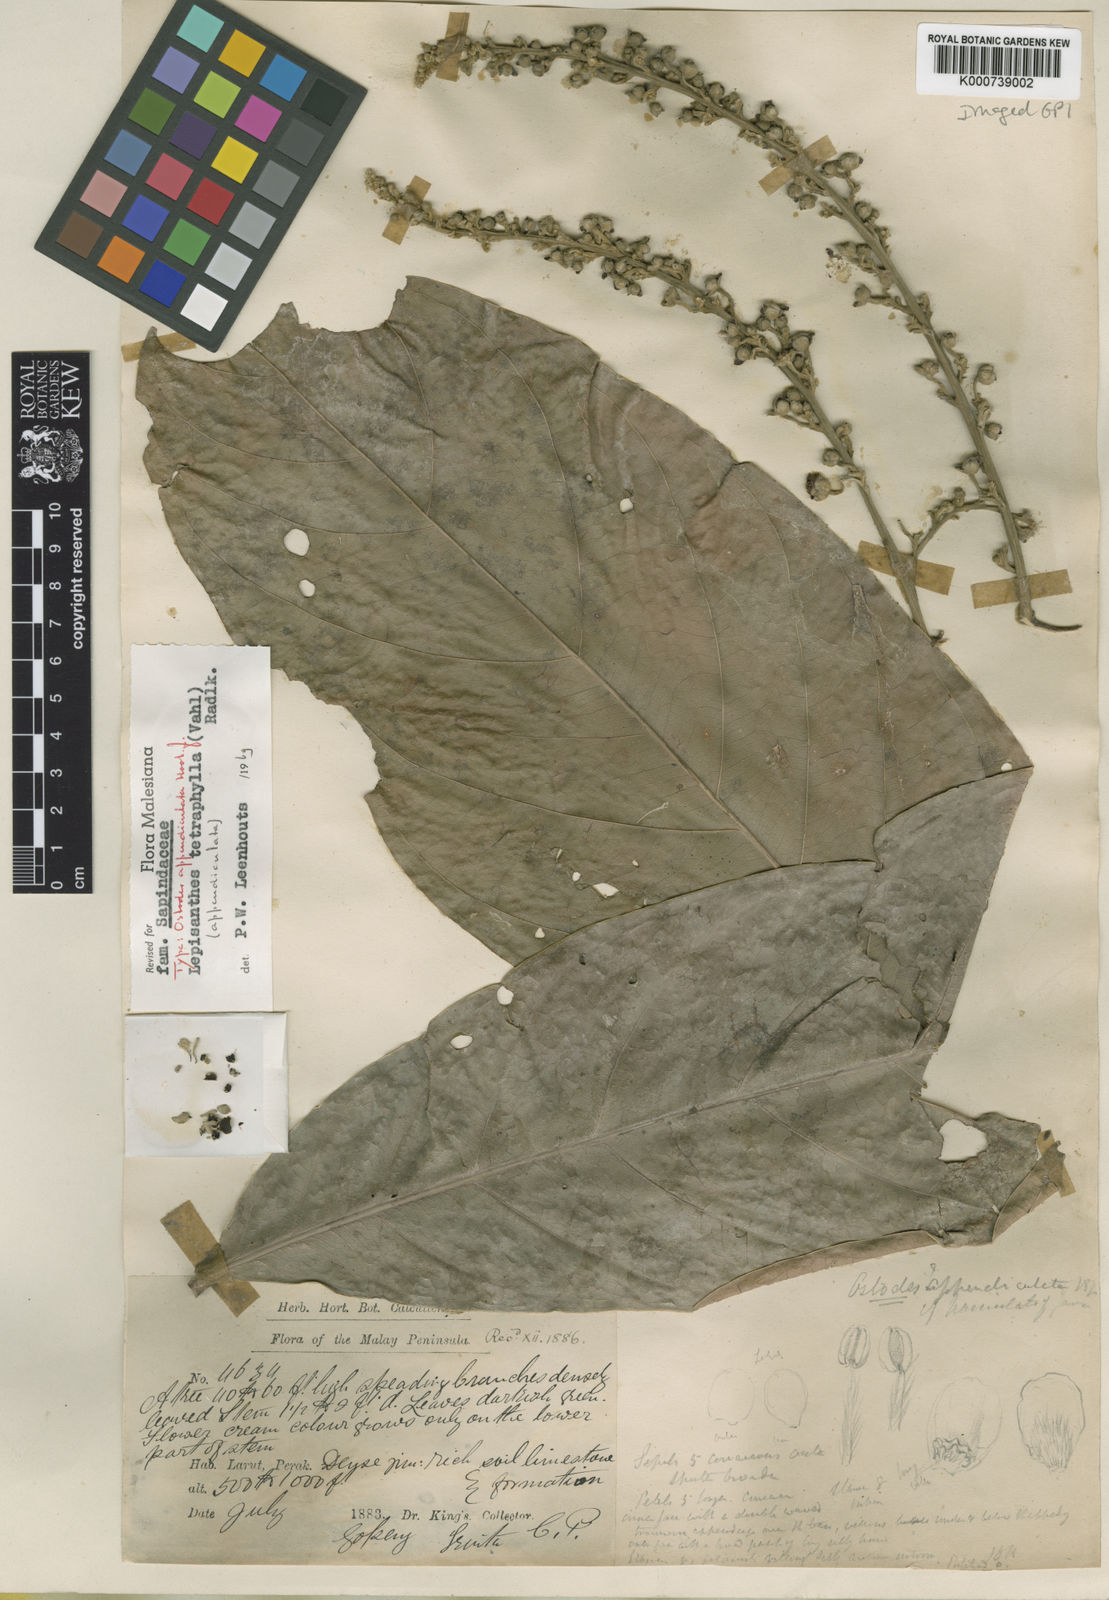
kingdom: Plantae
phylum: Tracheophyta
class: Magnoliopsida
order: Sapindales
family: Sapindaceae
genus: Lepisanthes
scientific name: Lepisanthes tetraphylla
